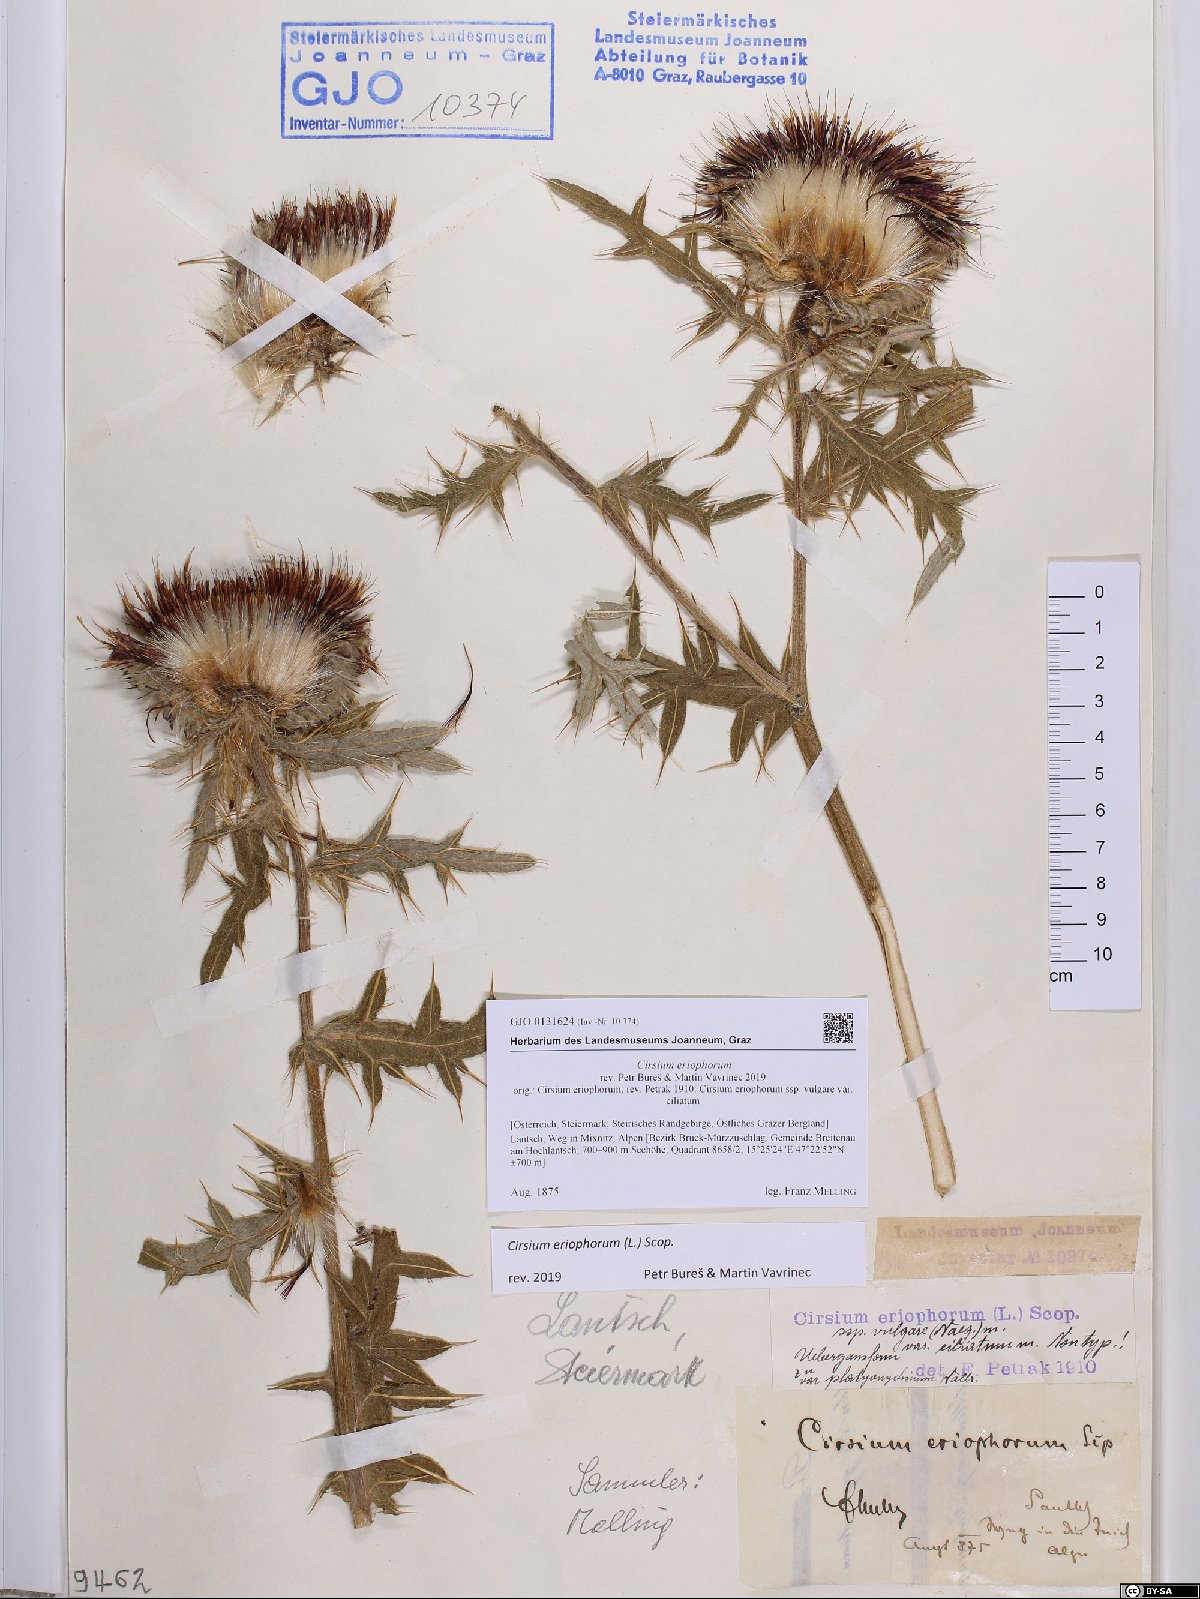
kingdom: Plantae
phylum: Tracheophyta
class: Magnoliopsida
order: Asterales
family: Asteraceae
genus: Lophiolepis
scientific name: Lophiolepis eriophora
